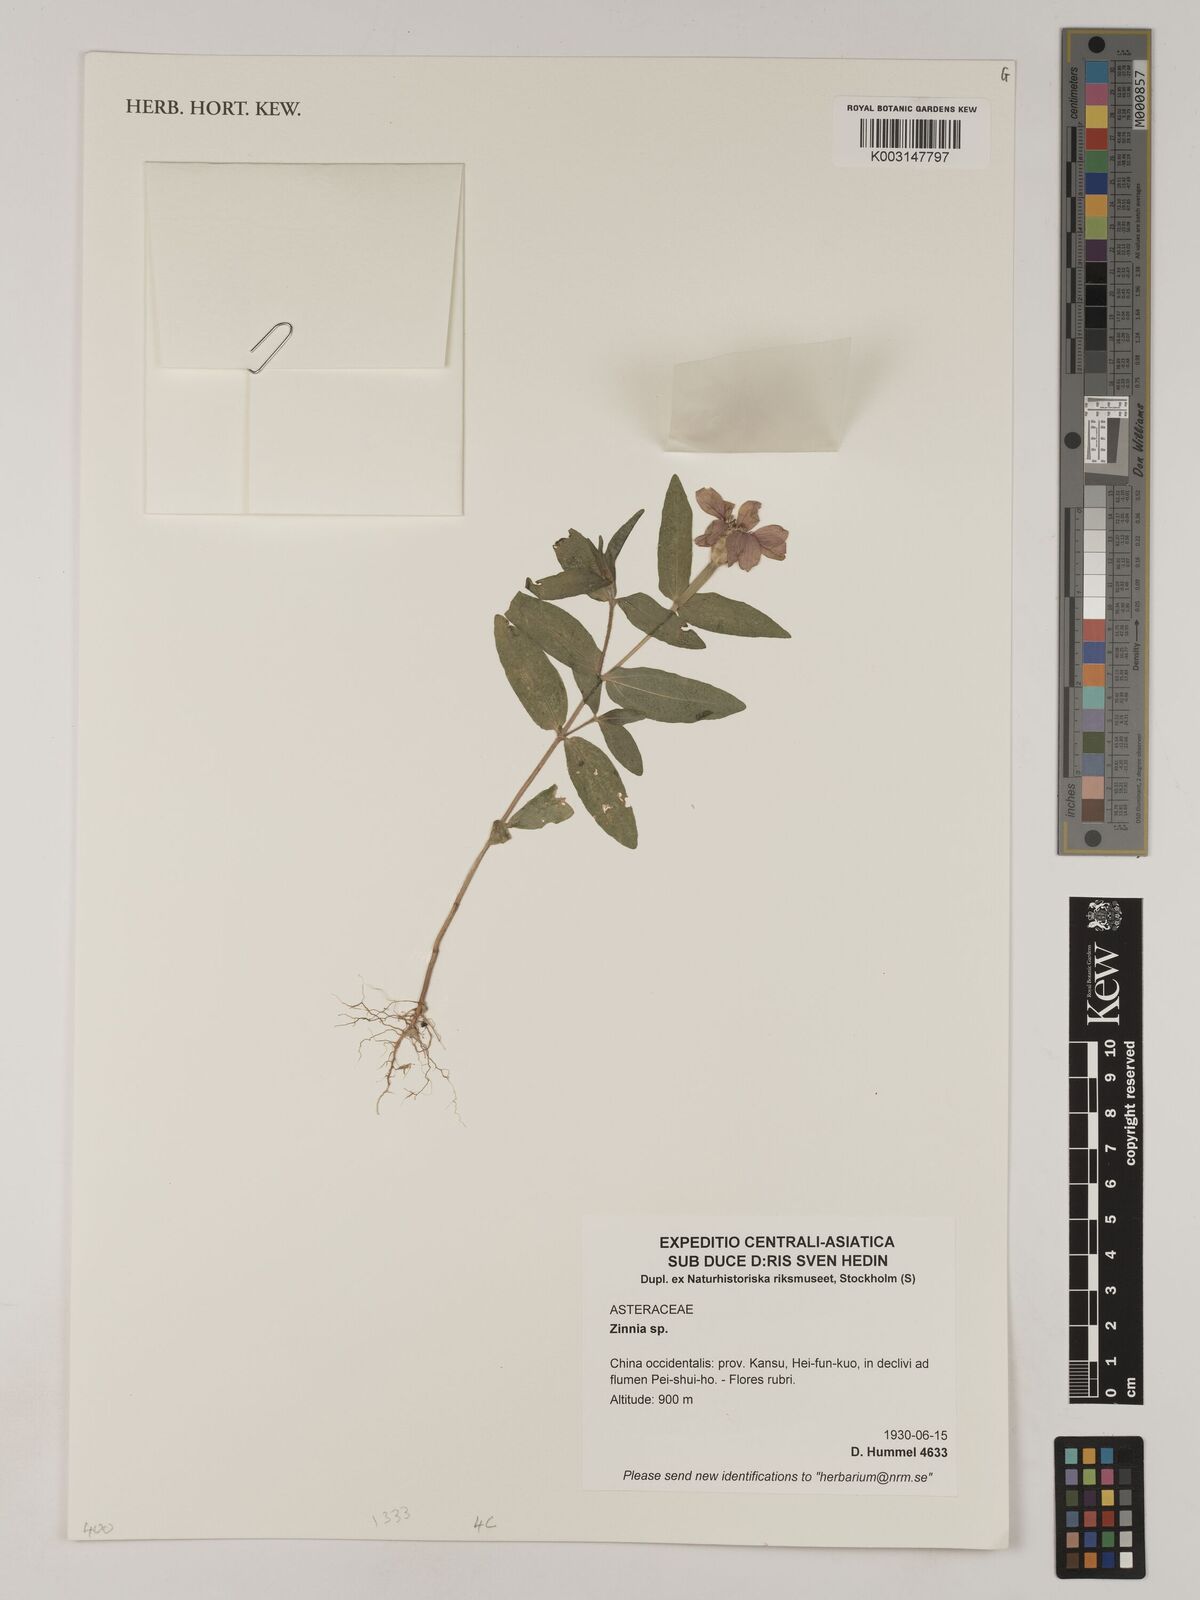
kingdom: Plantae
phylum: Tracheophyta
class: Magnoliopsida
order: Asterales
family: Asteraceae
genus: Zinnia
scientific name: Zinnia
